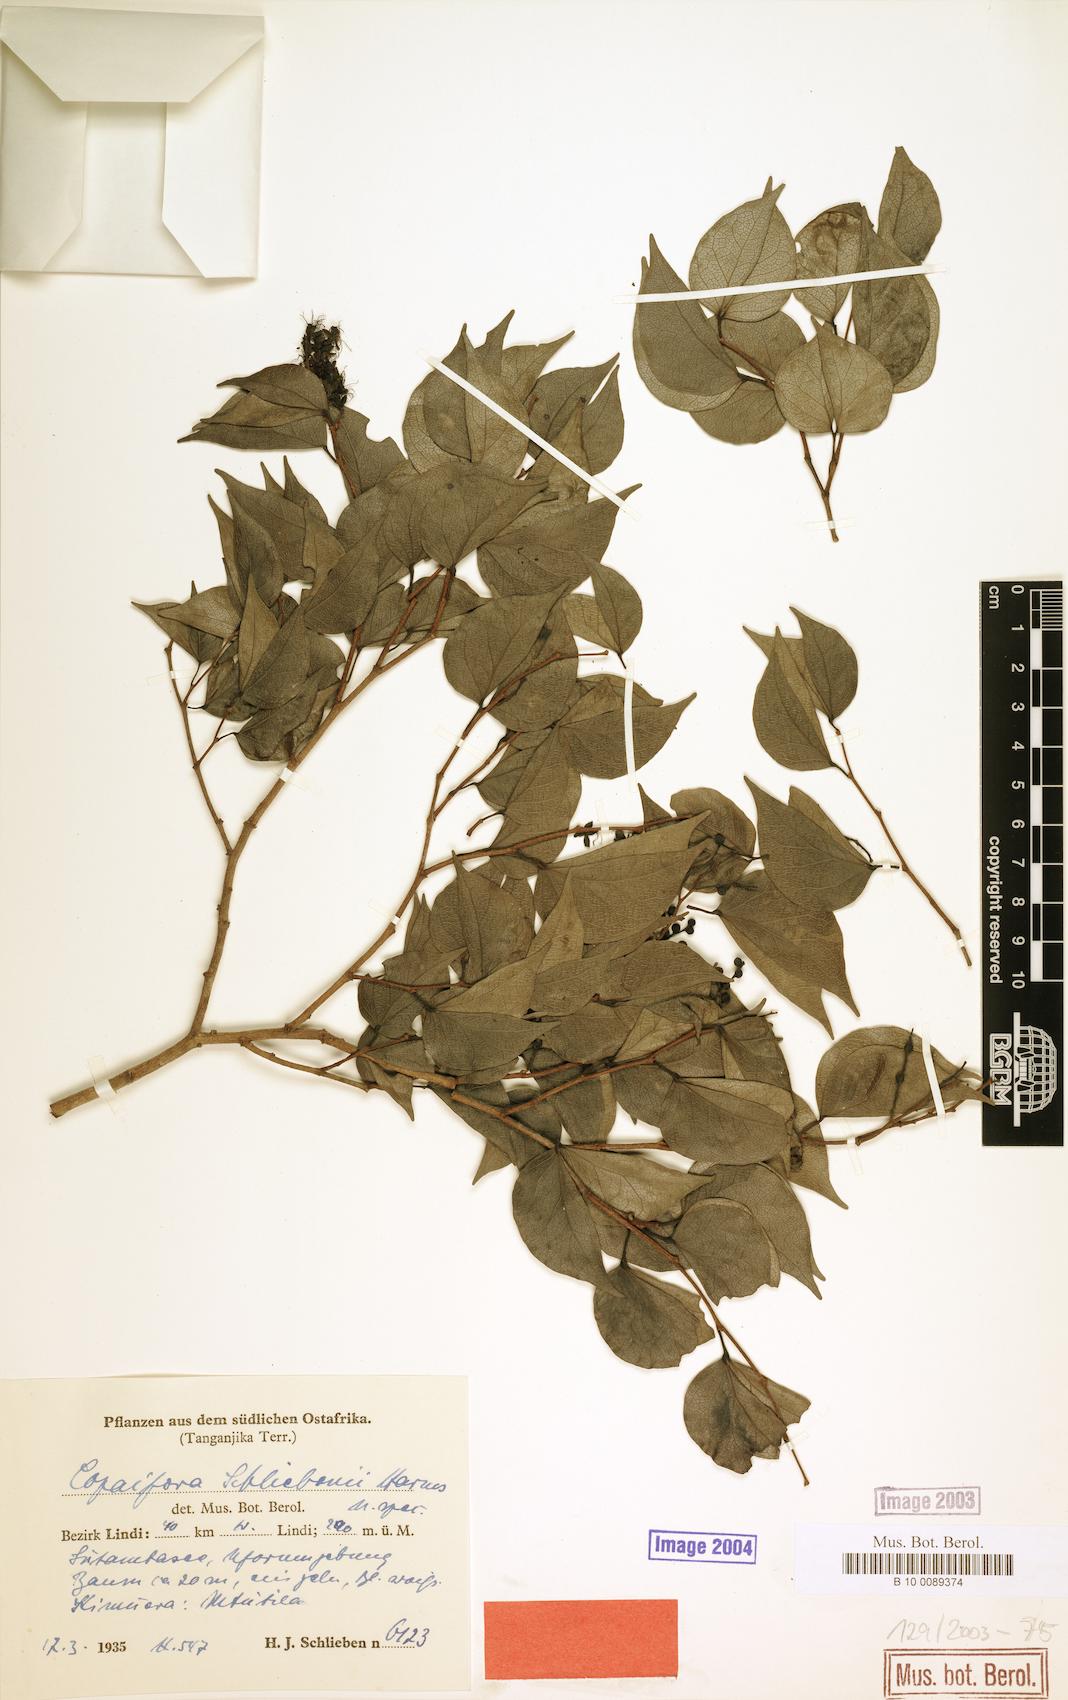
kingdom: Plantae
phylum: Tracheophyta
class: Magnoliopsida
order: Fabales
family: Fabaceae
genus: Guibourtia
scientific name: Guibourtia schliebenii
